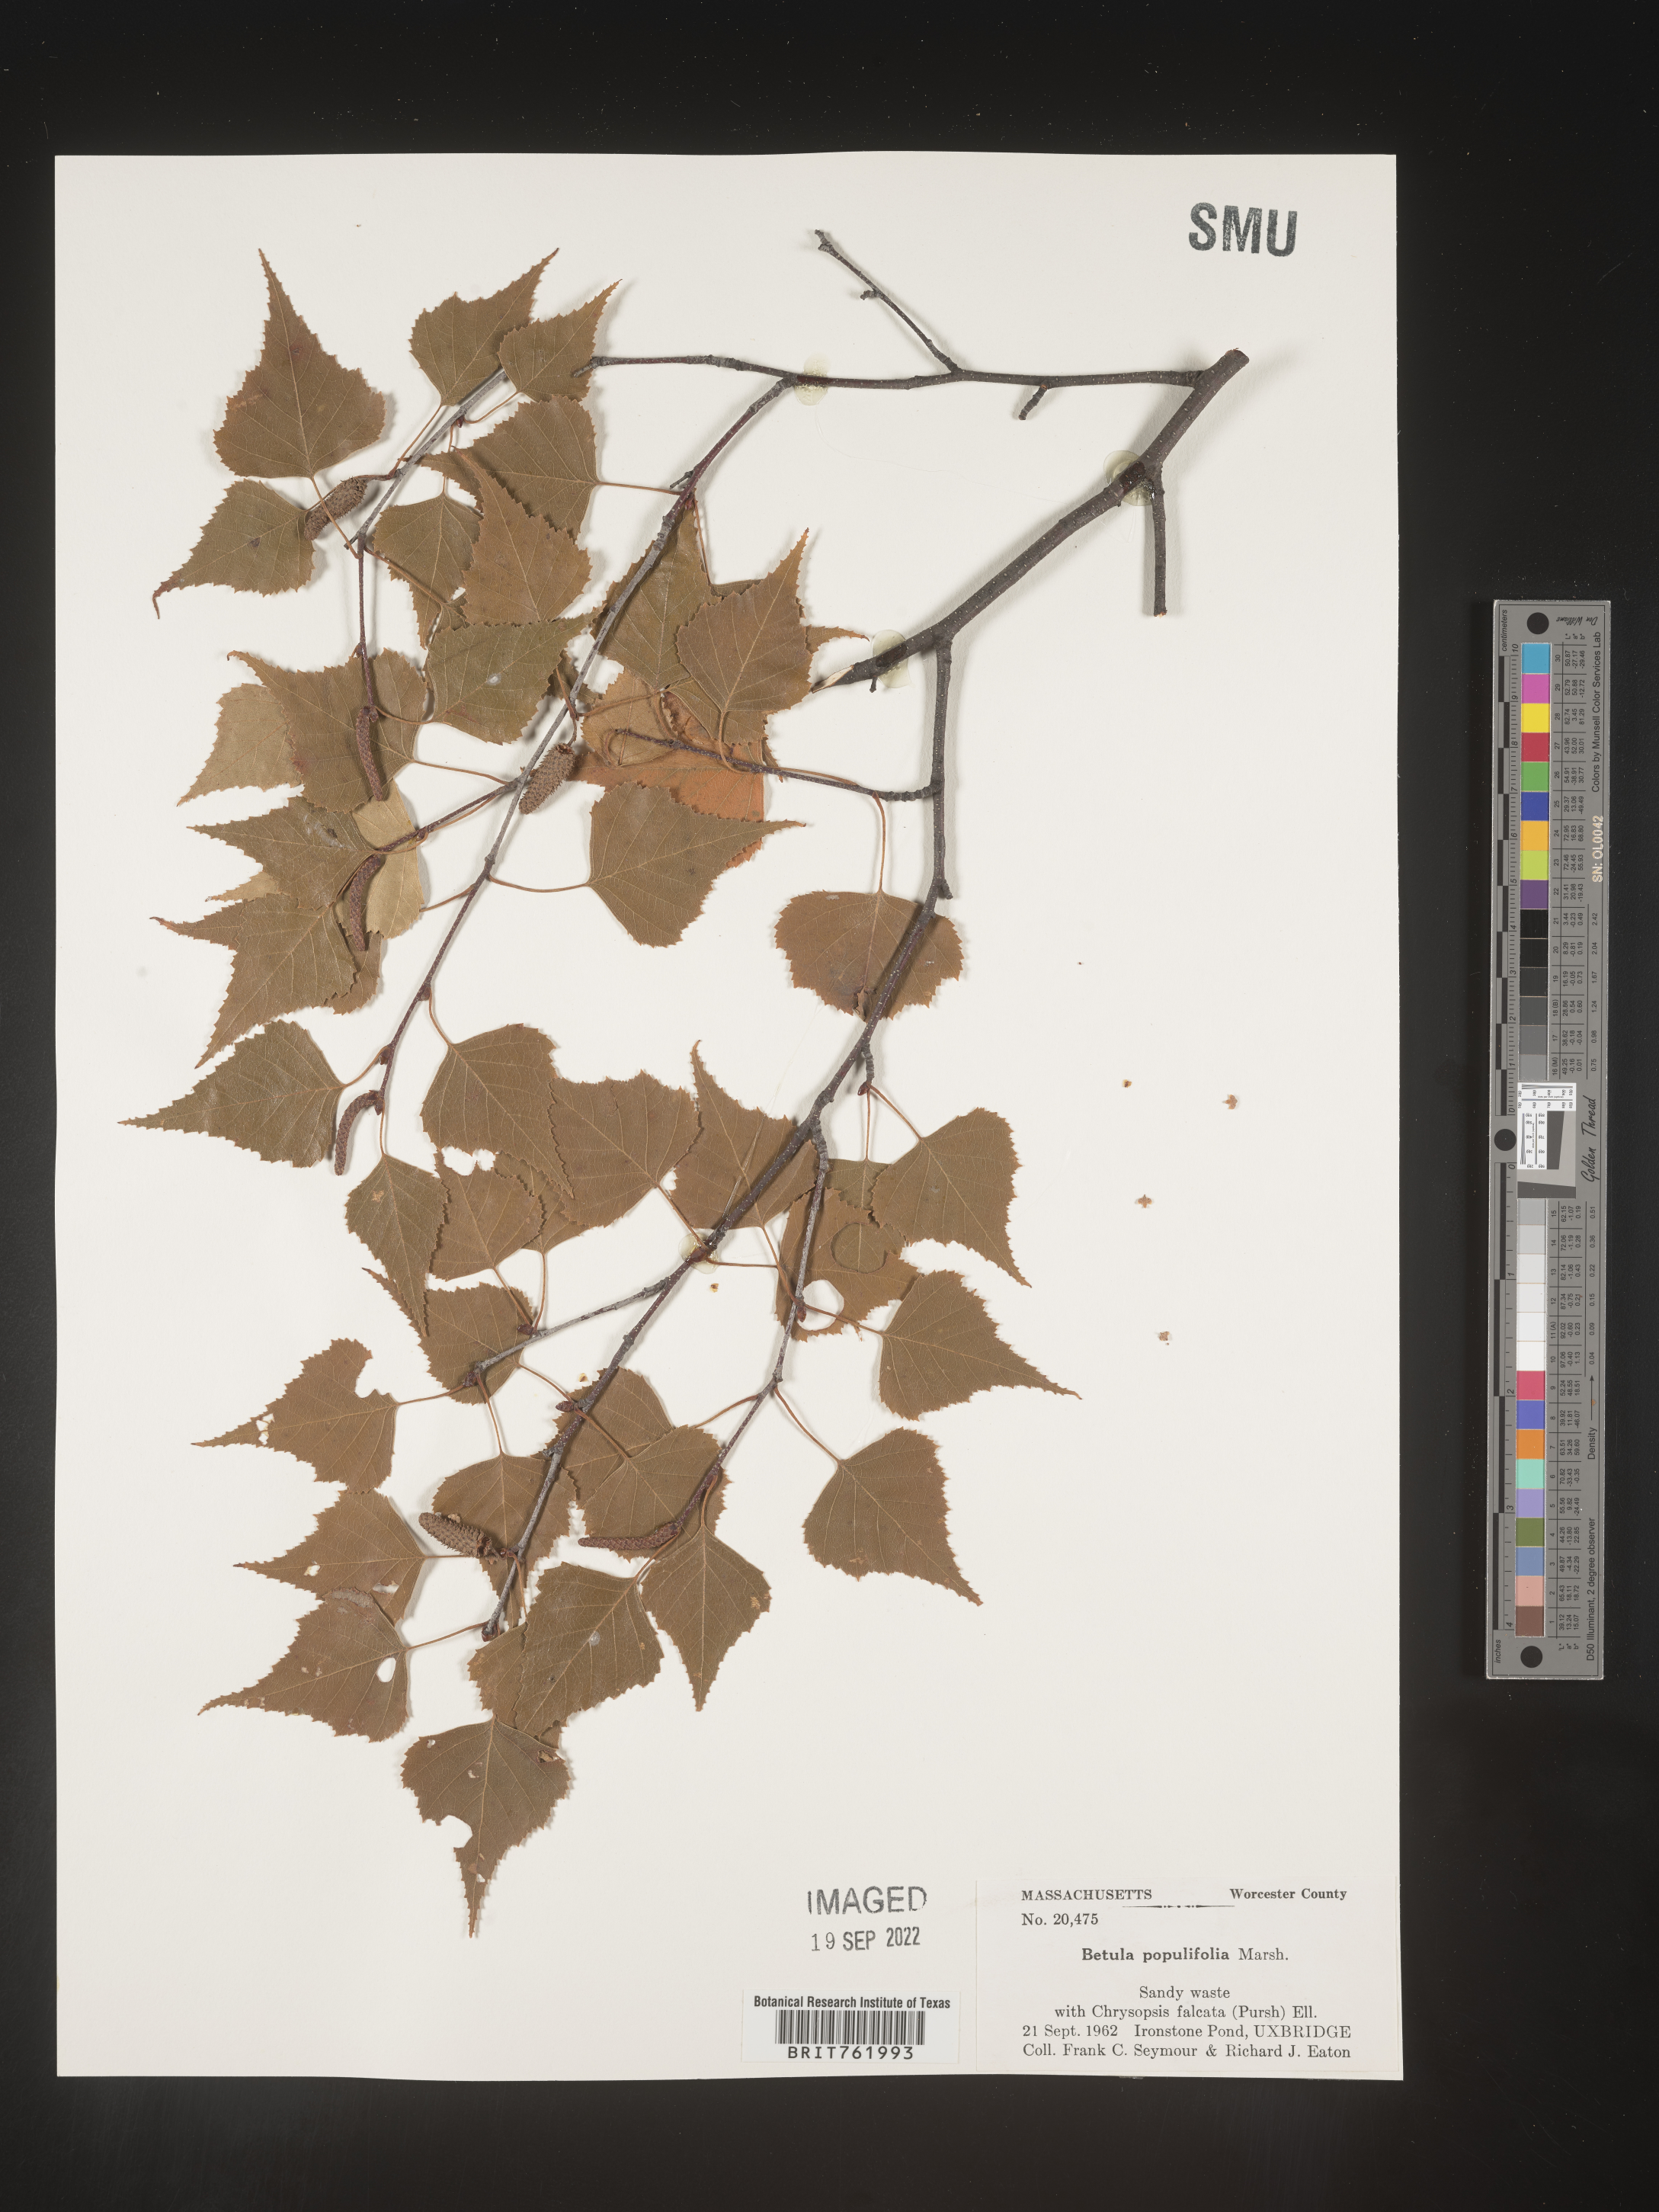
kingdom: Plantae
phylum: Tracheophyta
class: Magnoliopsida
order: Fagales
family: Betulaceae
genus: Betula
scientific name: Betula populifolia
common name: Fire birch
